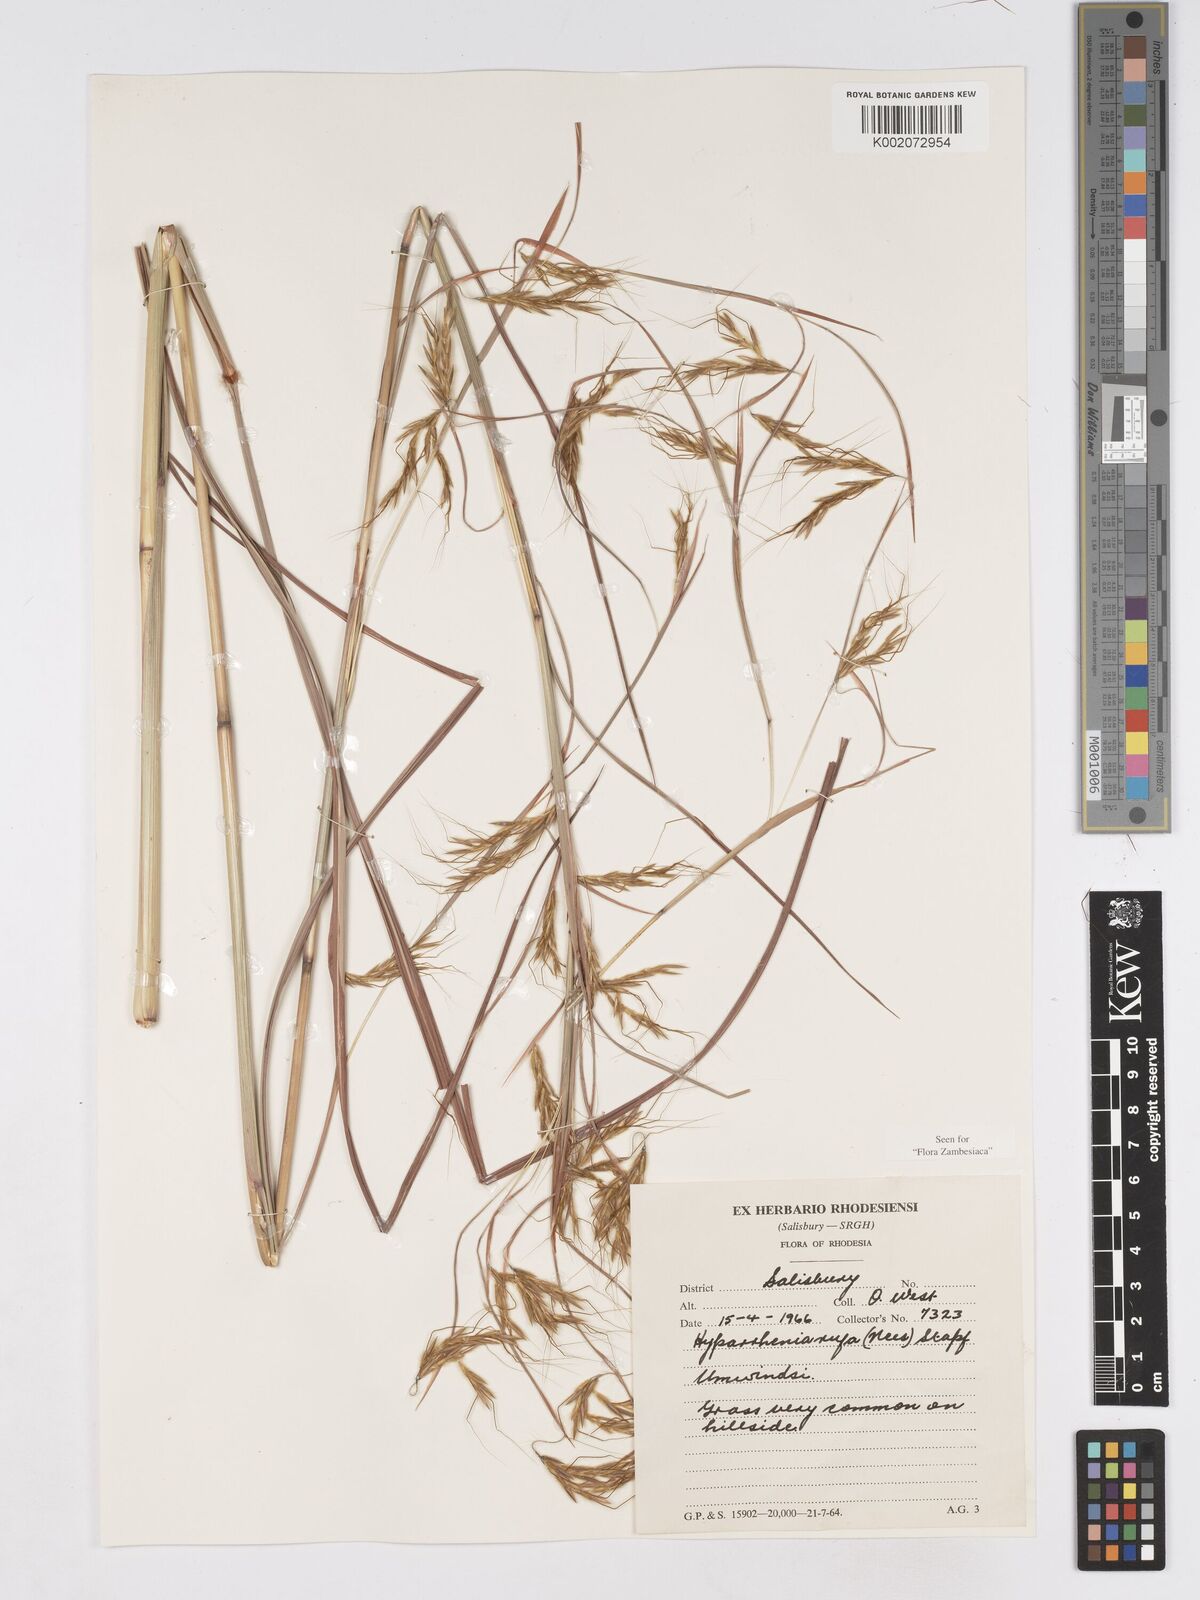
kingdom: Plantae
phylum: Tracheophyta
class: Liliopsida
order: Poales
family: Poaceae
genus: Hyparrhenia
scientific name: Hyparrhenia rufa
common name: Jaraguagrass
